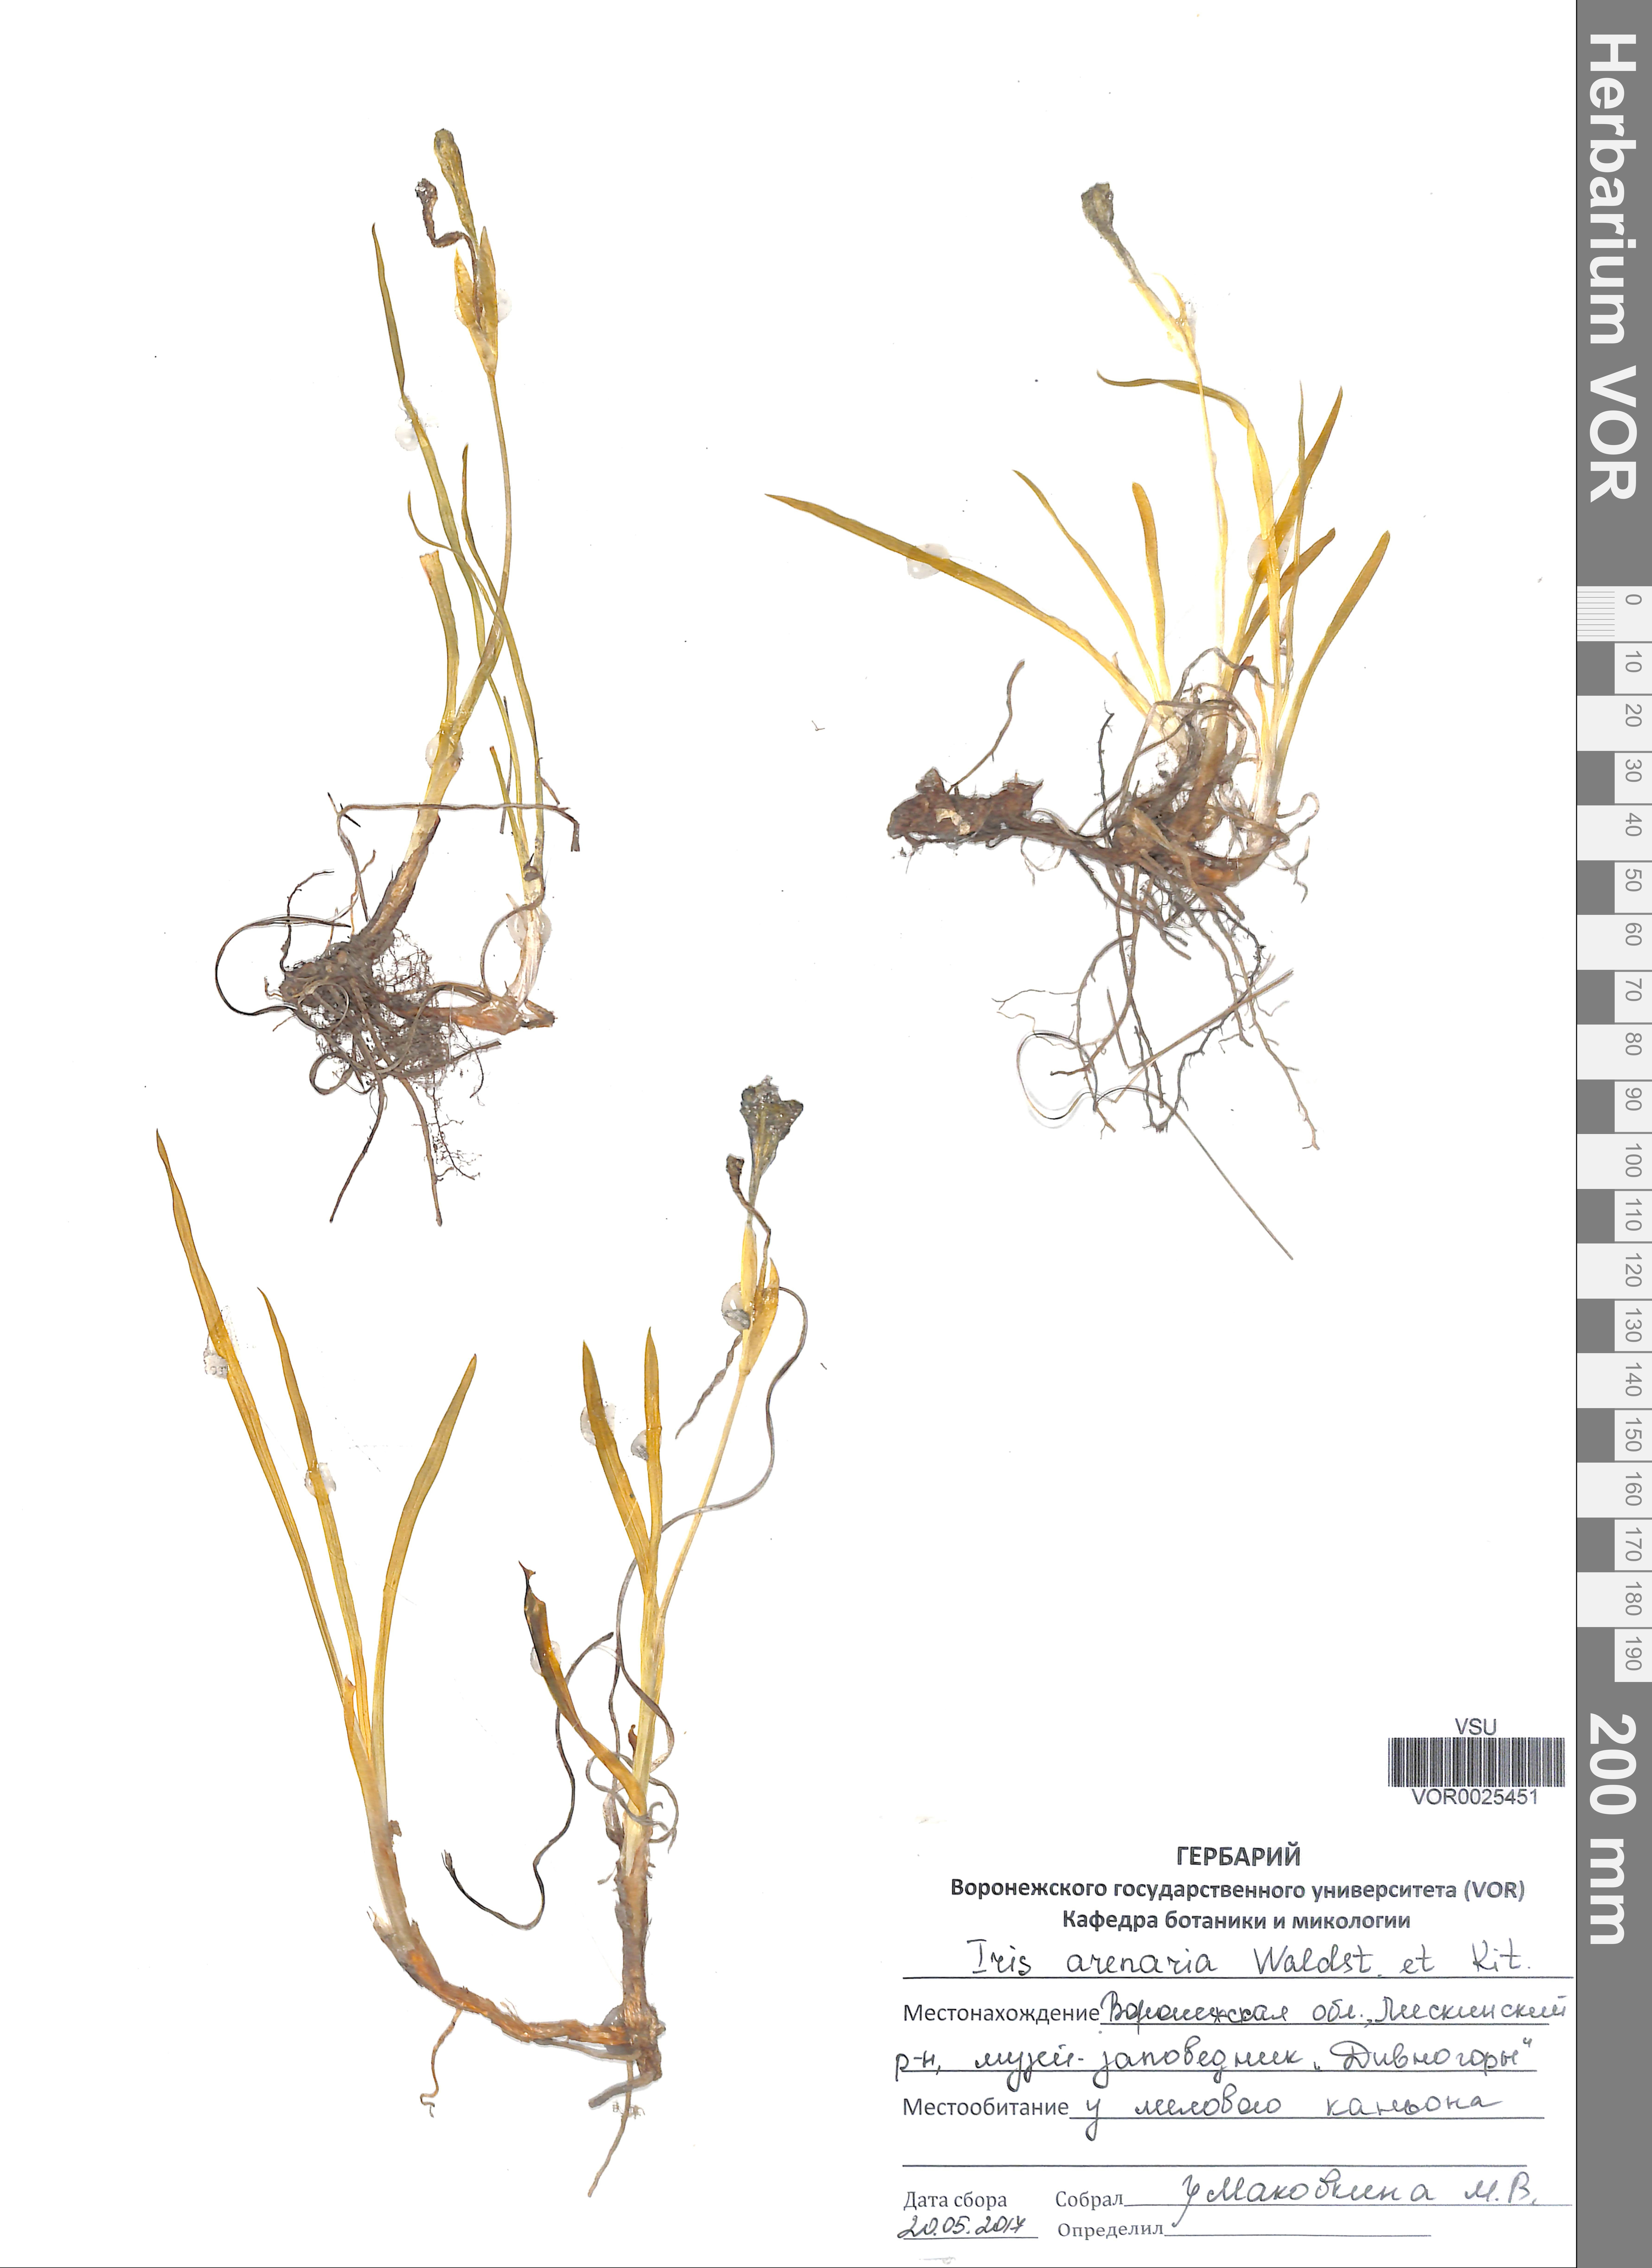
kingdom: Plantae
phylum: Tracheophyta
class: Liliopsida
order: Asparagales
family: Iridaceae
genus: Iris
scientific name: Iris arenaria
